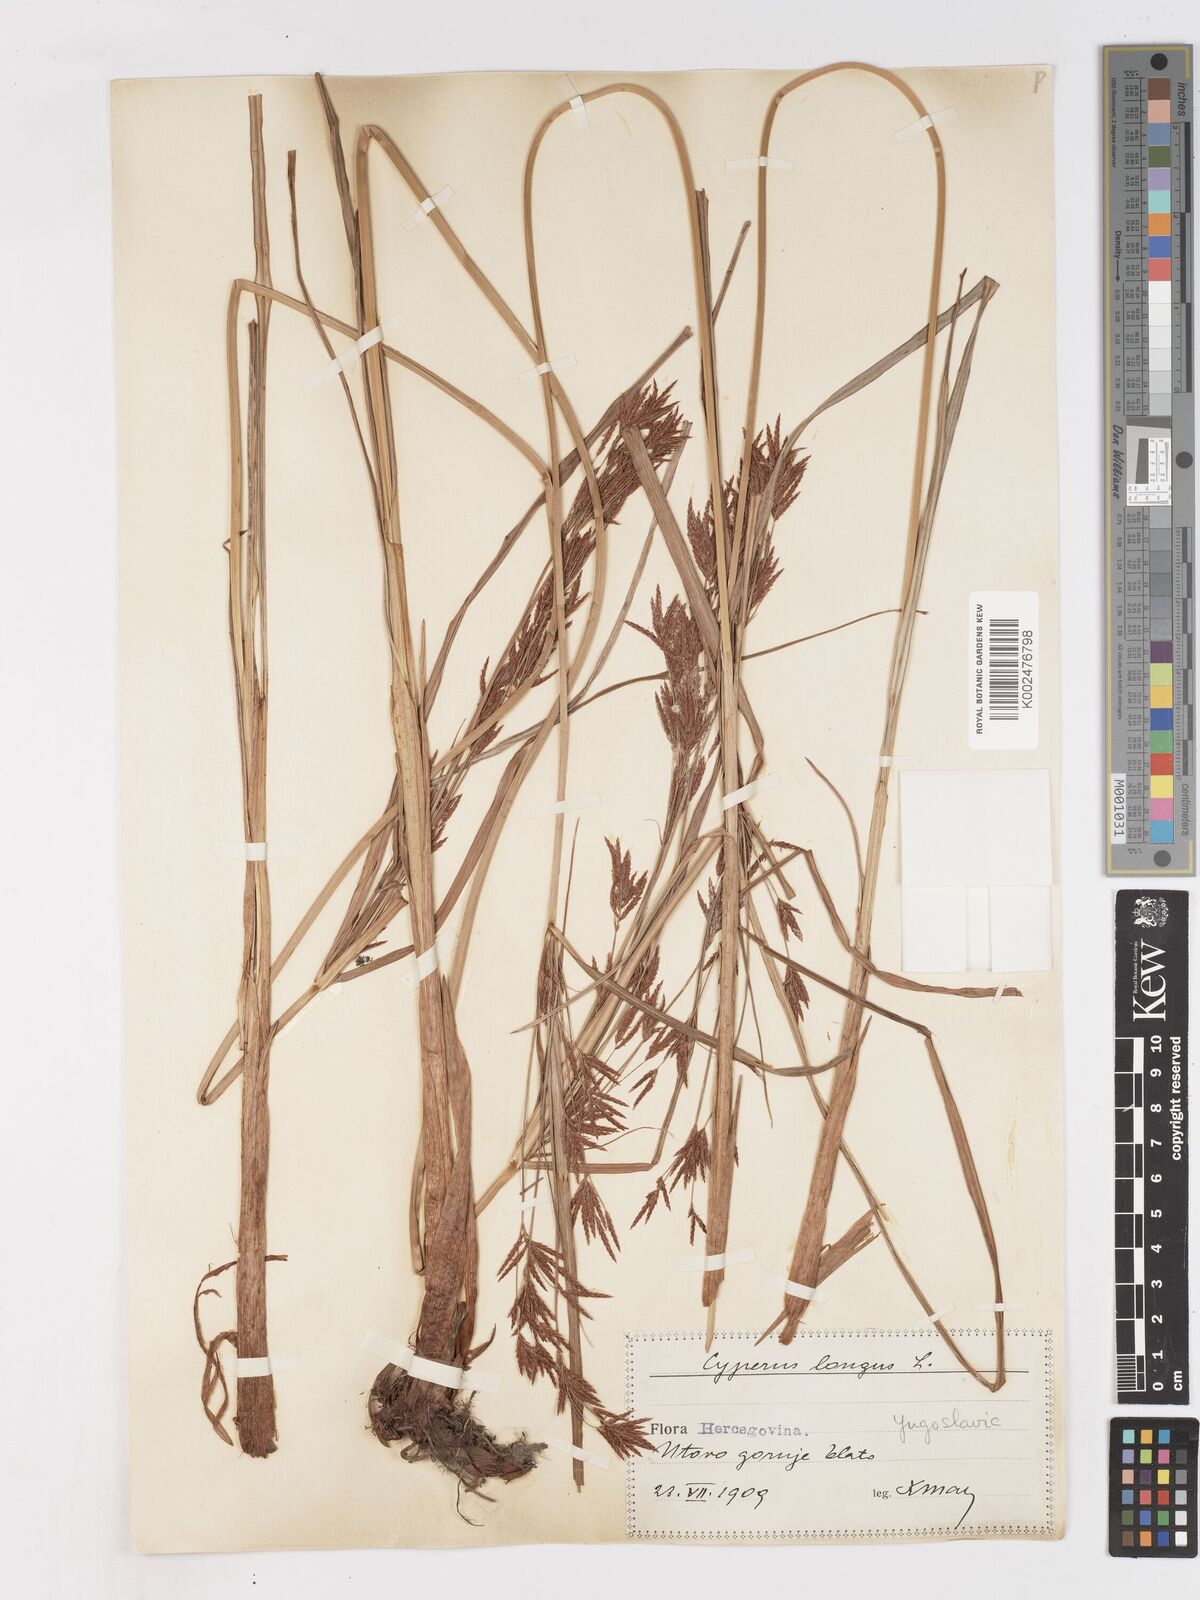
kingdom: Plantae
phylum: Tracheophyta
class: Liliopsida
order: Poales
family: Cyperaceae
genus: Cyperus
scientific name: Cyperus longus
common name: Galingale
